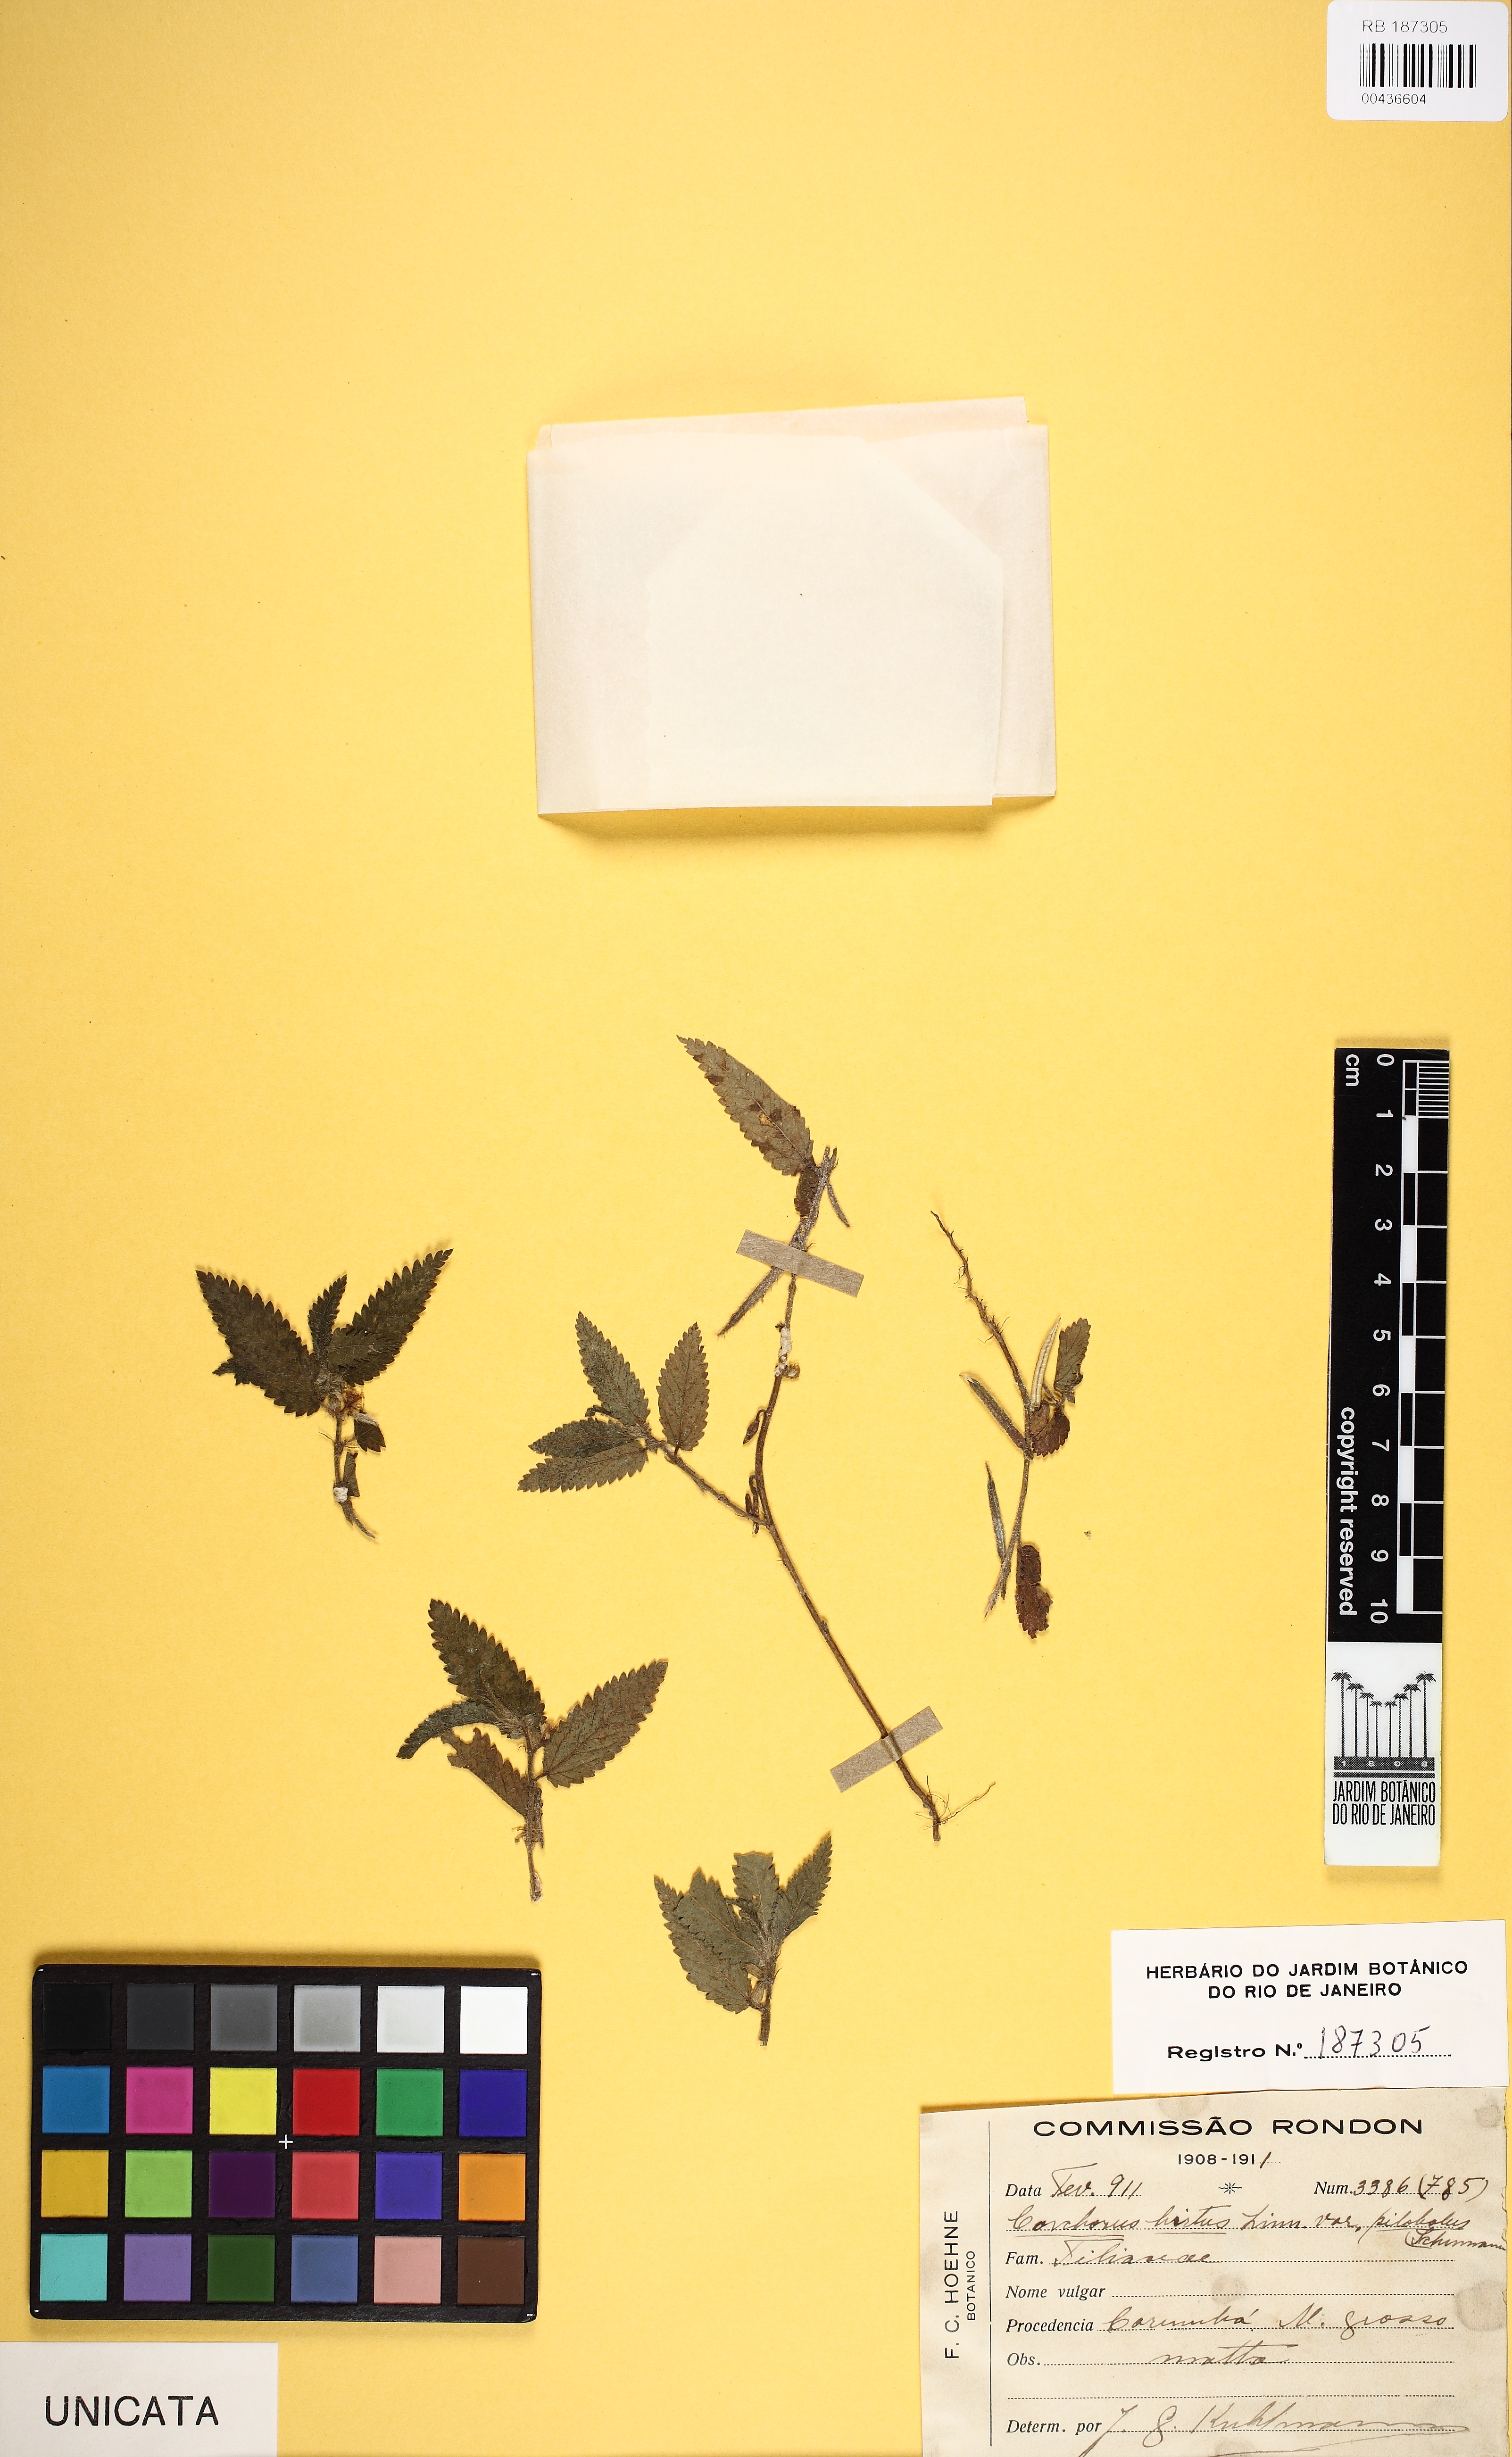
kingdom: Plantae
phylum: Tracheophyta
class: Magnoliopsida
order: Malvales
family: Malvaceae
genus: Corchorus
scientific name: Corchorus hirtus
